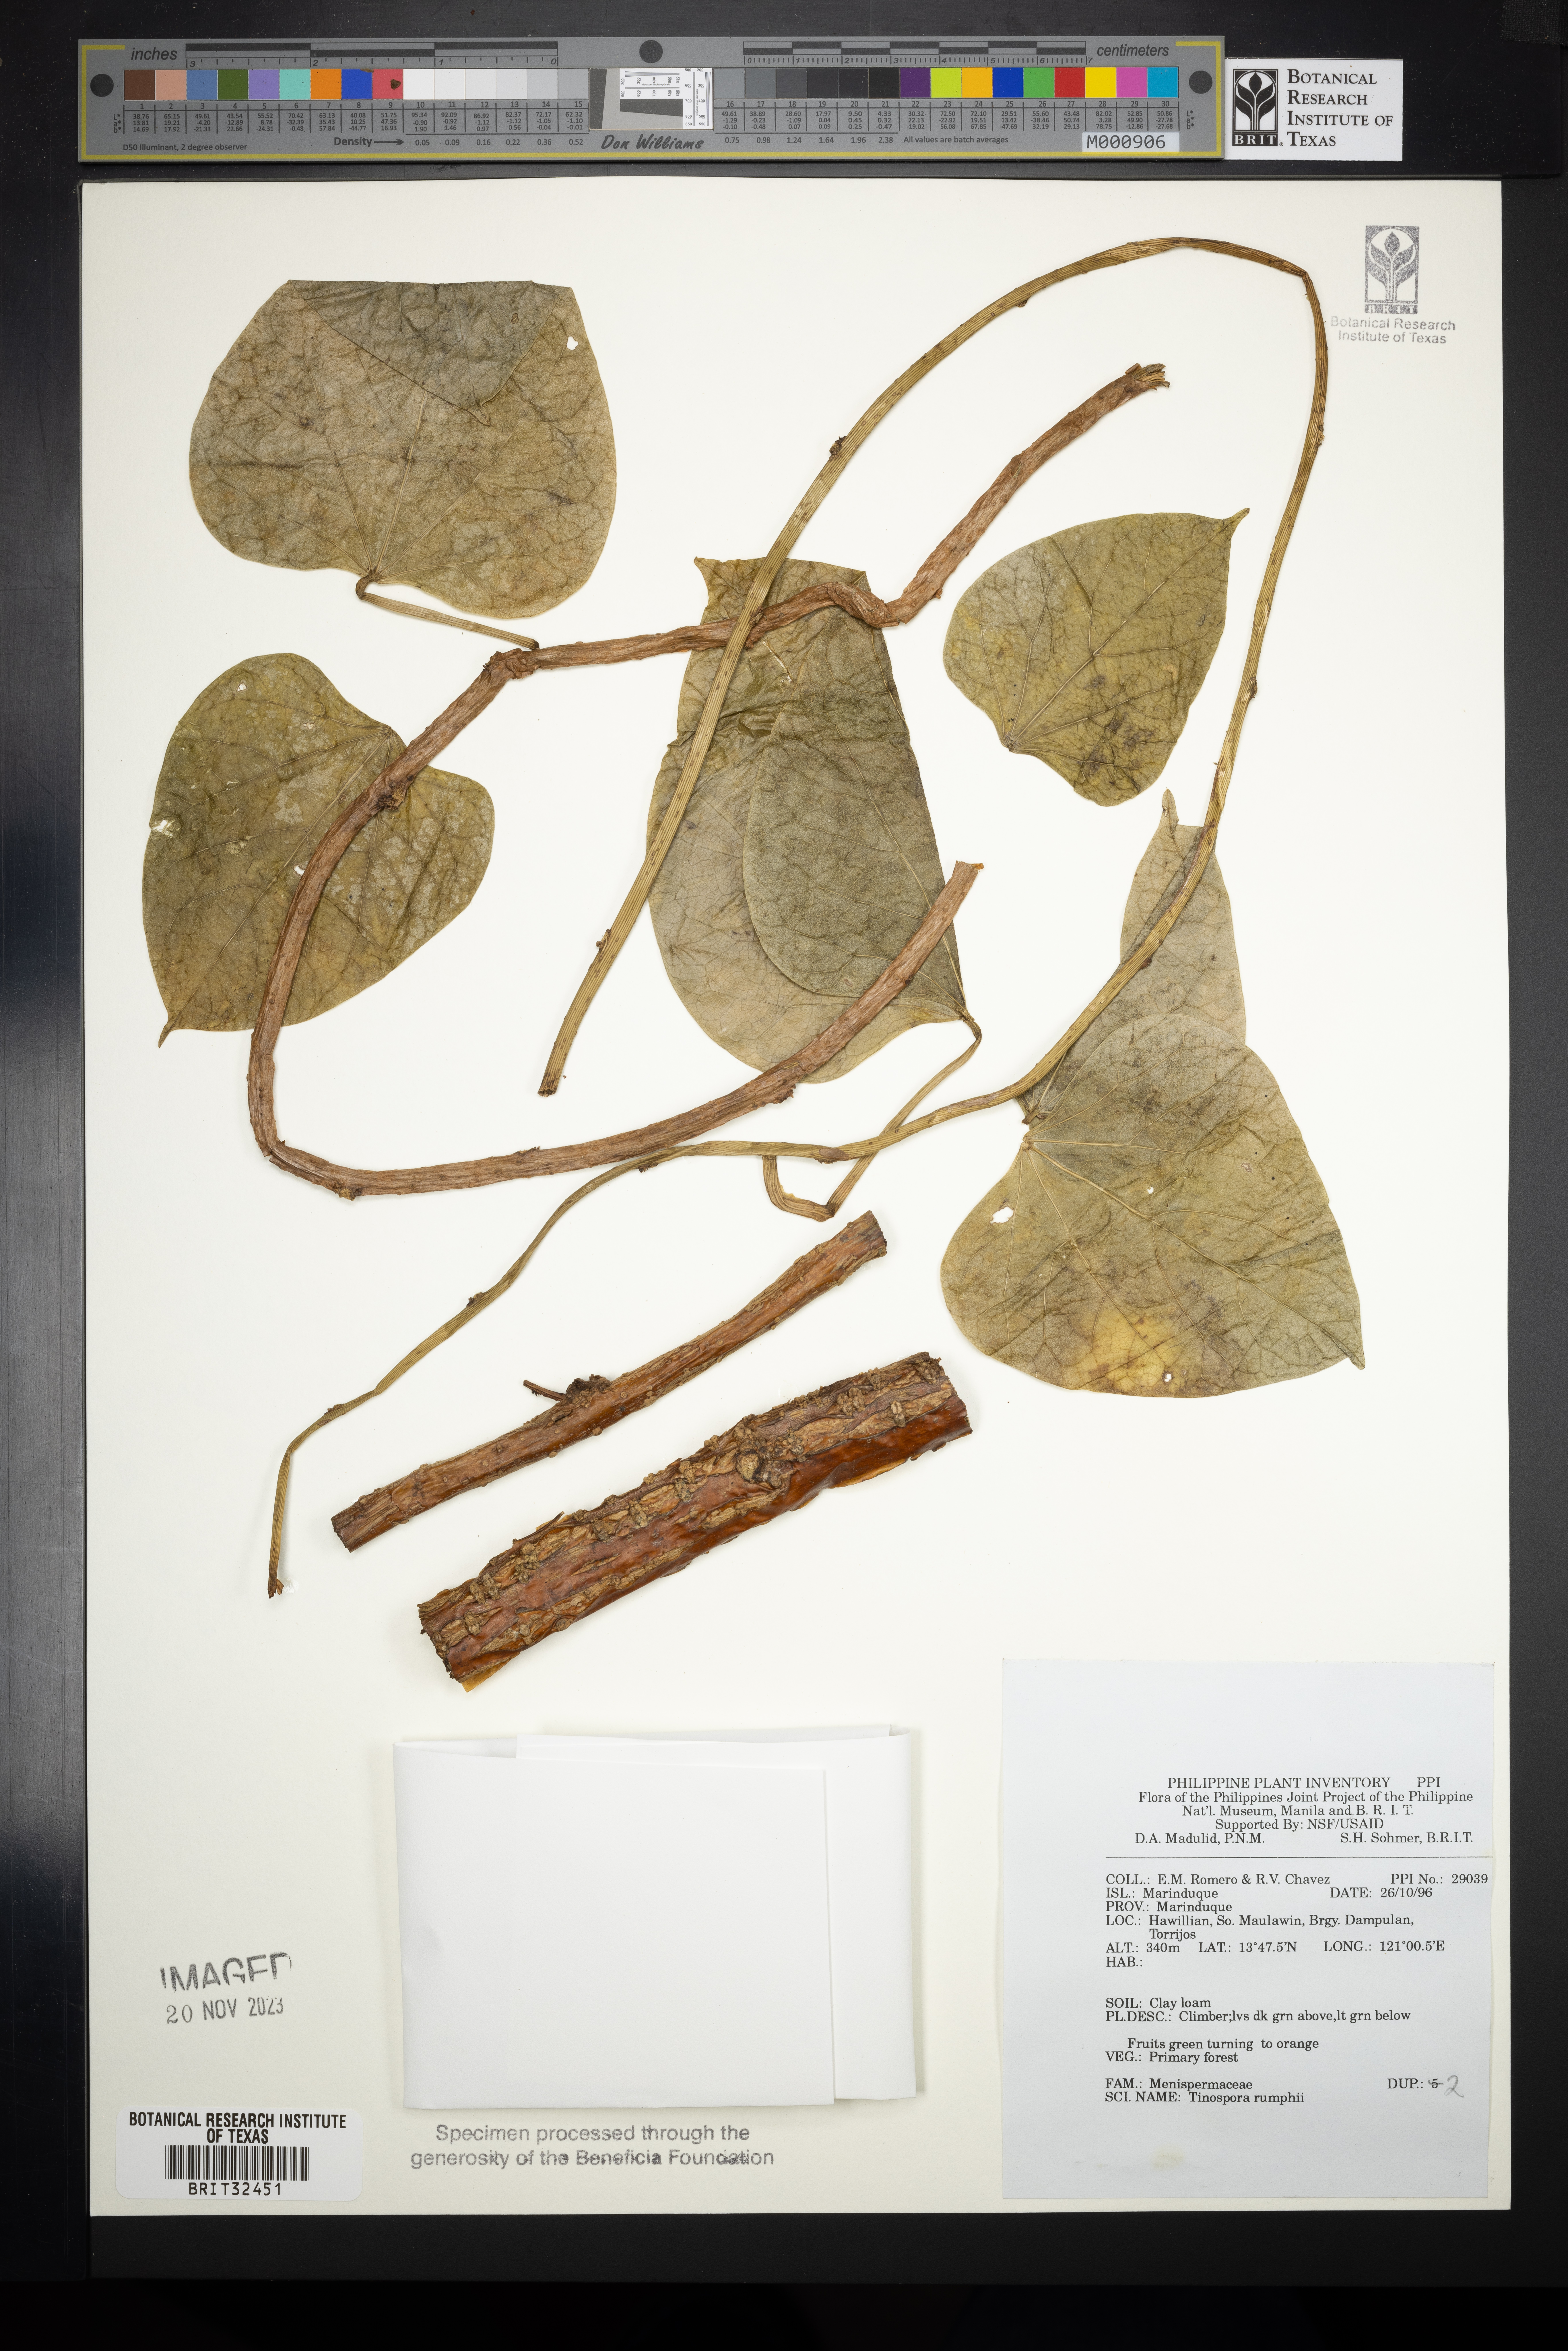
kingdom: Plantae
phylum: Tracheophyta
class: Magnoliopsida
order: Ranunculales
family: Menispermaceae
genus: Tinospora
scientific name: Tinospora crispa
